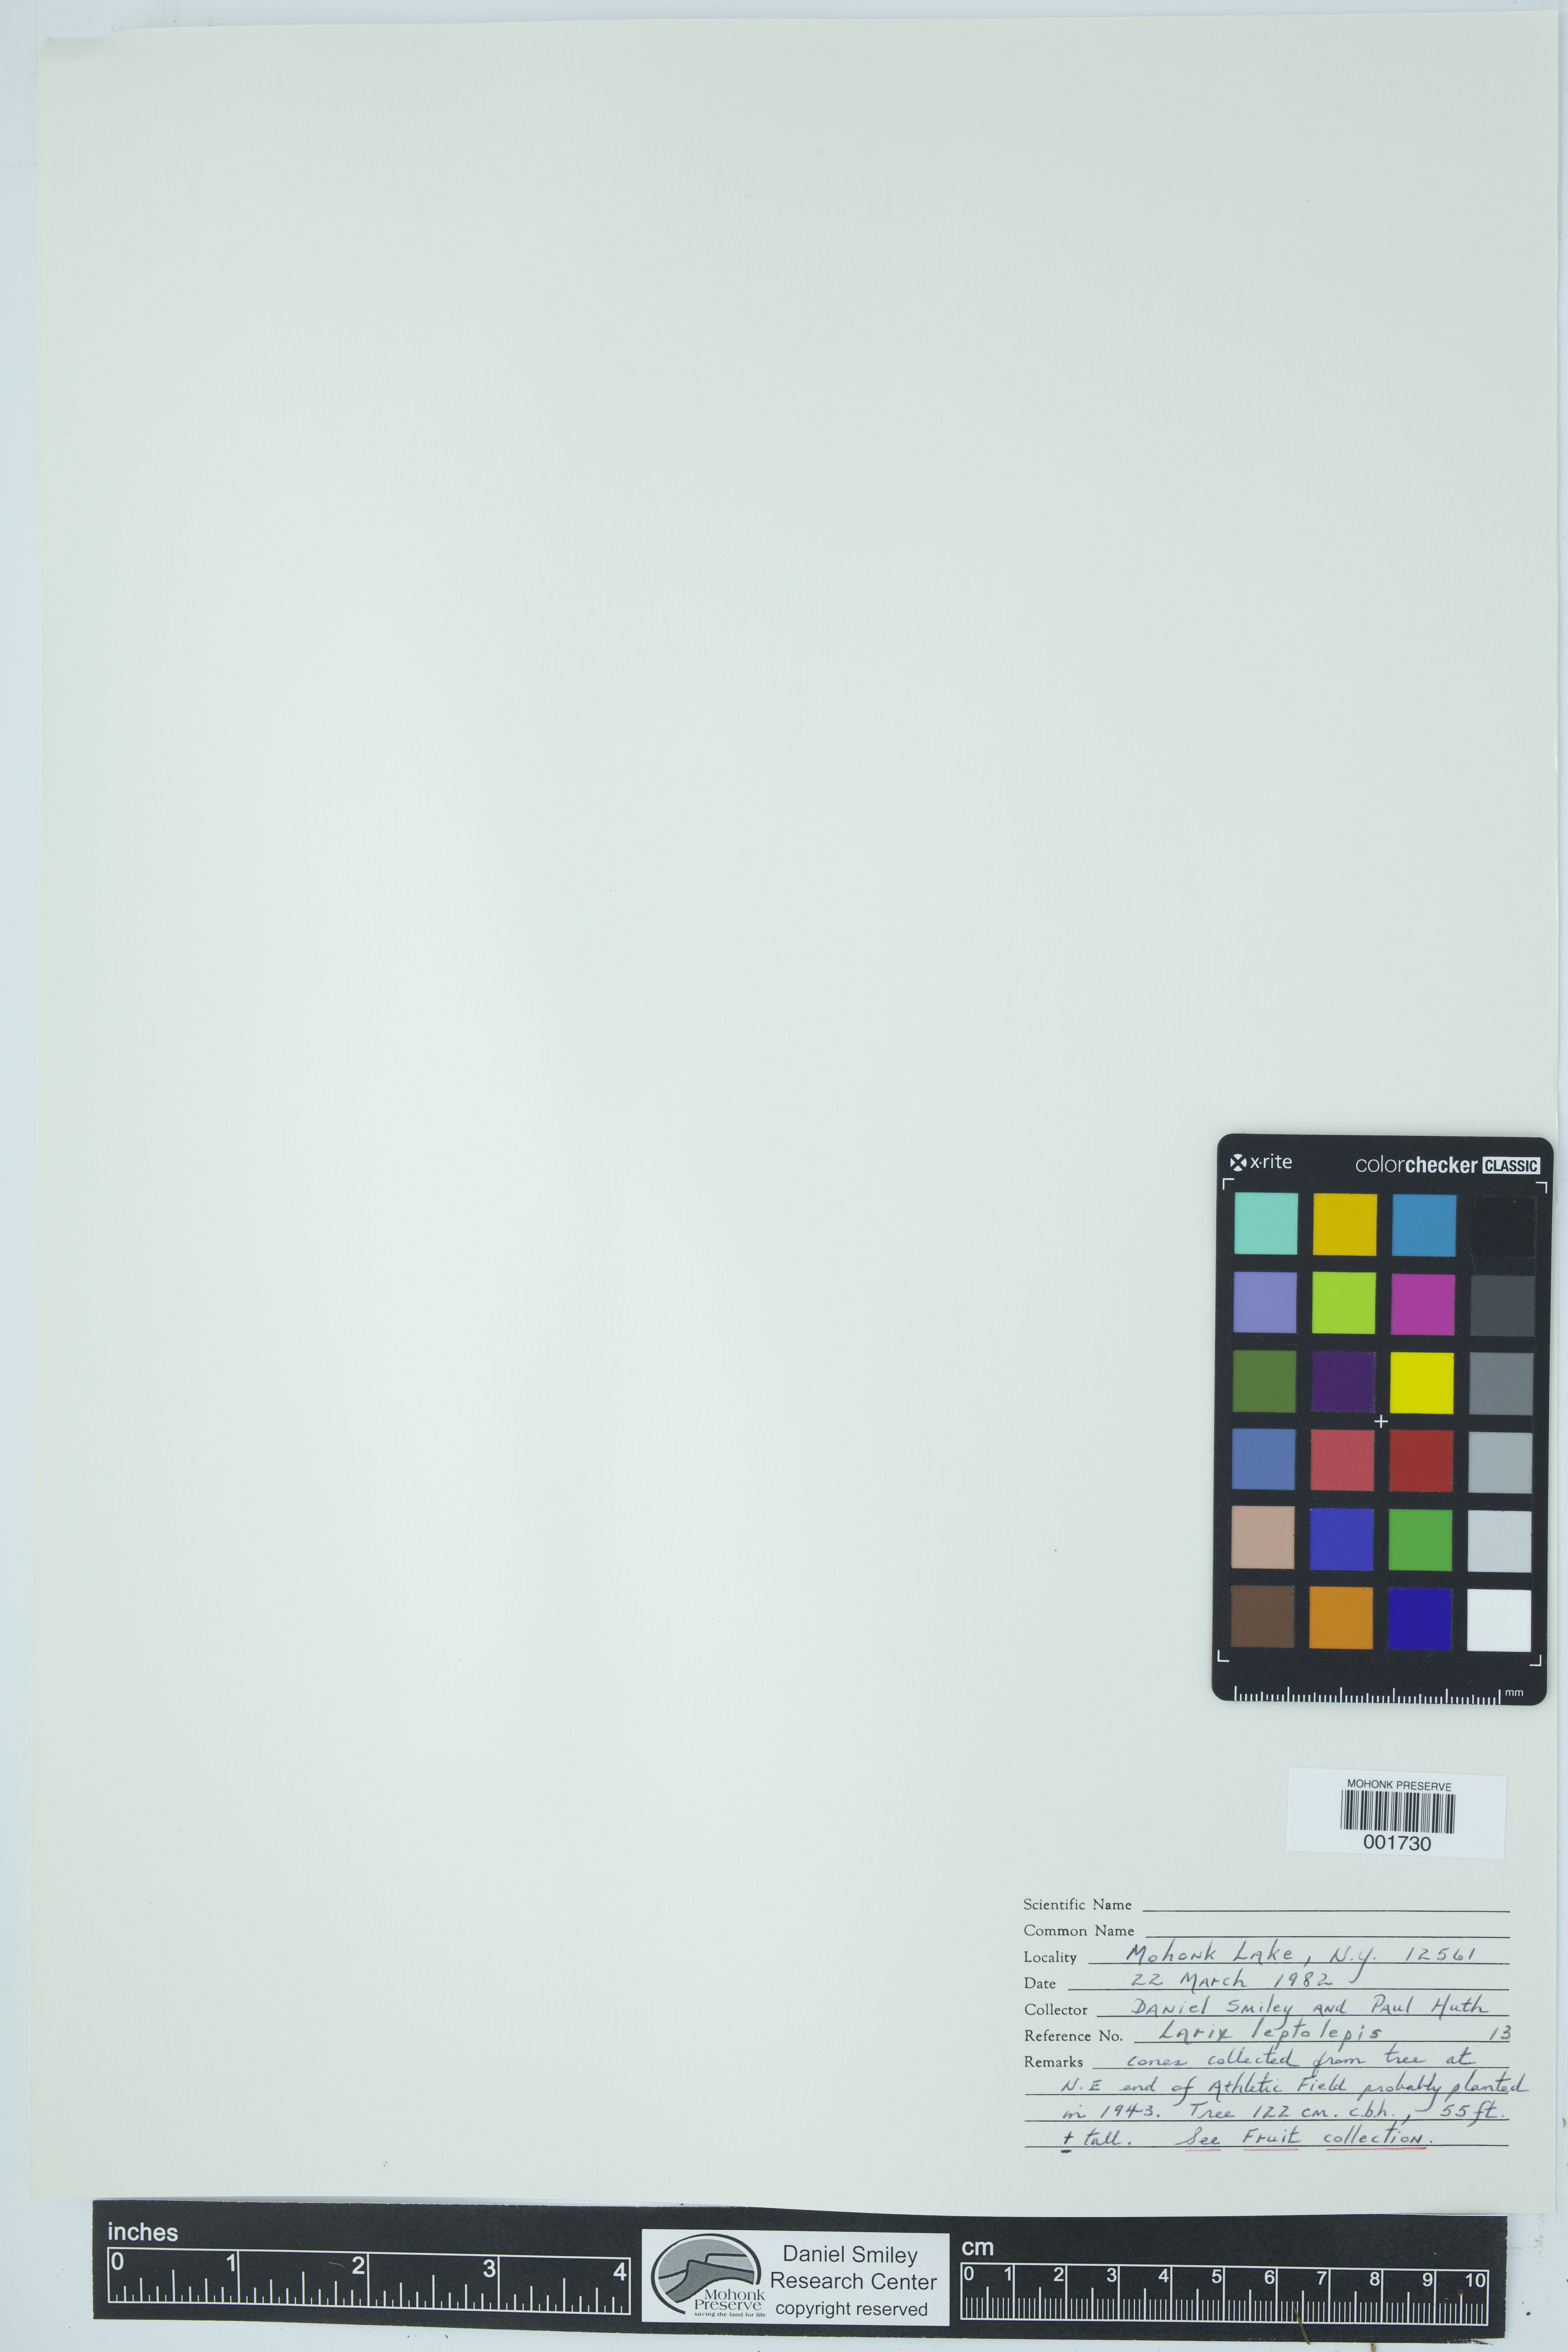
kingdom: Plantae
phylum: Tracheophyta
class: Pinopsida
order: Pinales
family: Pinaceae
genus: Larix
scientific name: Larix kaempferi
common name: Japanese larch
